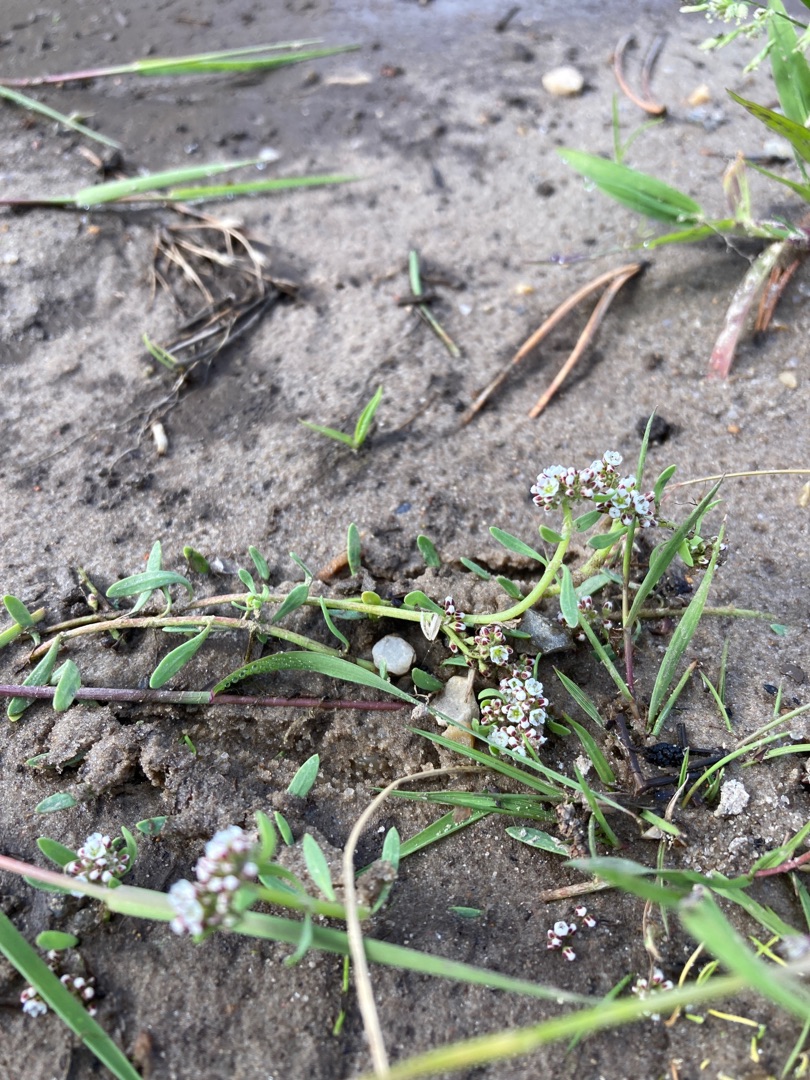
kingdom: Plantae
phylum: Tracheophyta
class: Magnoliopsida
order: Caryophyllales
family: Caryophyllaceae
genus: Corrigiola
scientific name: Corrigiola litoralis
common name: Skorem
